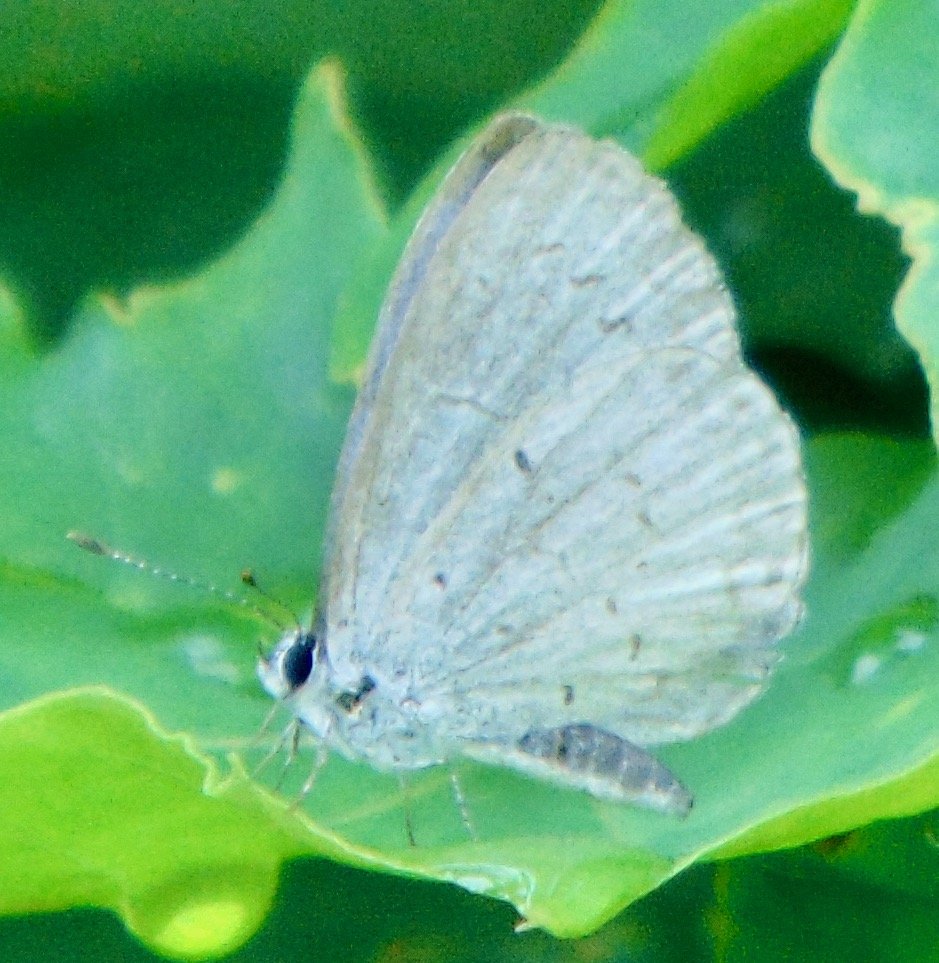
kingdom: Animalia
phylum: Arthropoda
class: Insecta
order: Lepidoptera
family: Lycaenidae
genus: Cyaniris
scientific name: Cyaniris neglecta
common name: Summer Azure
